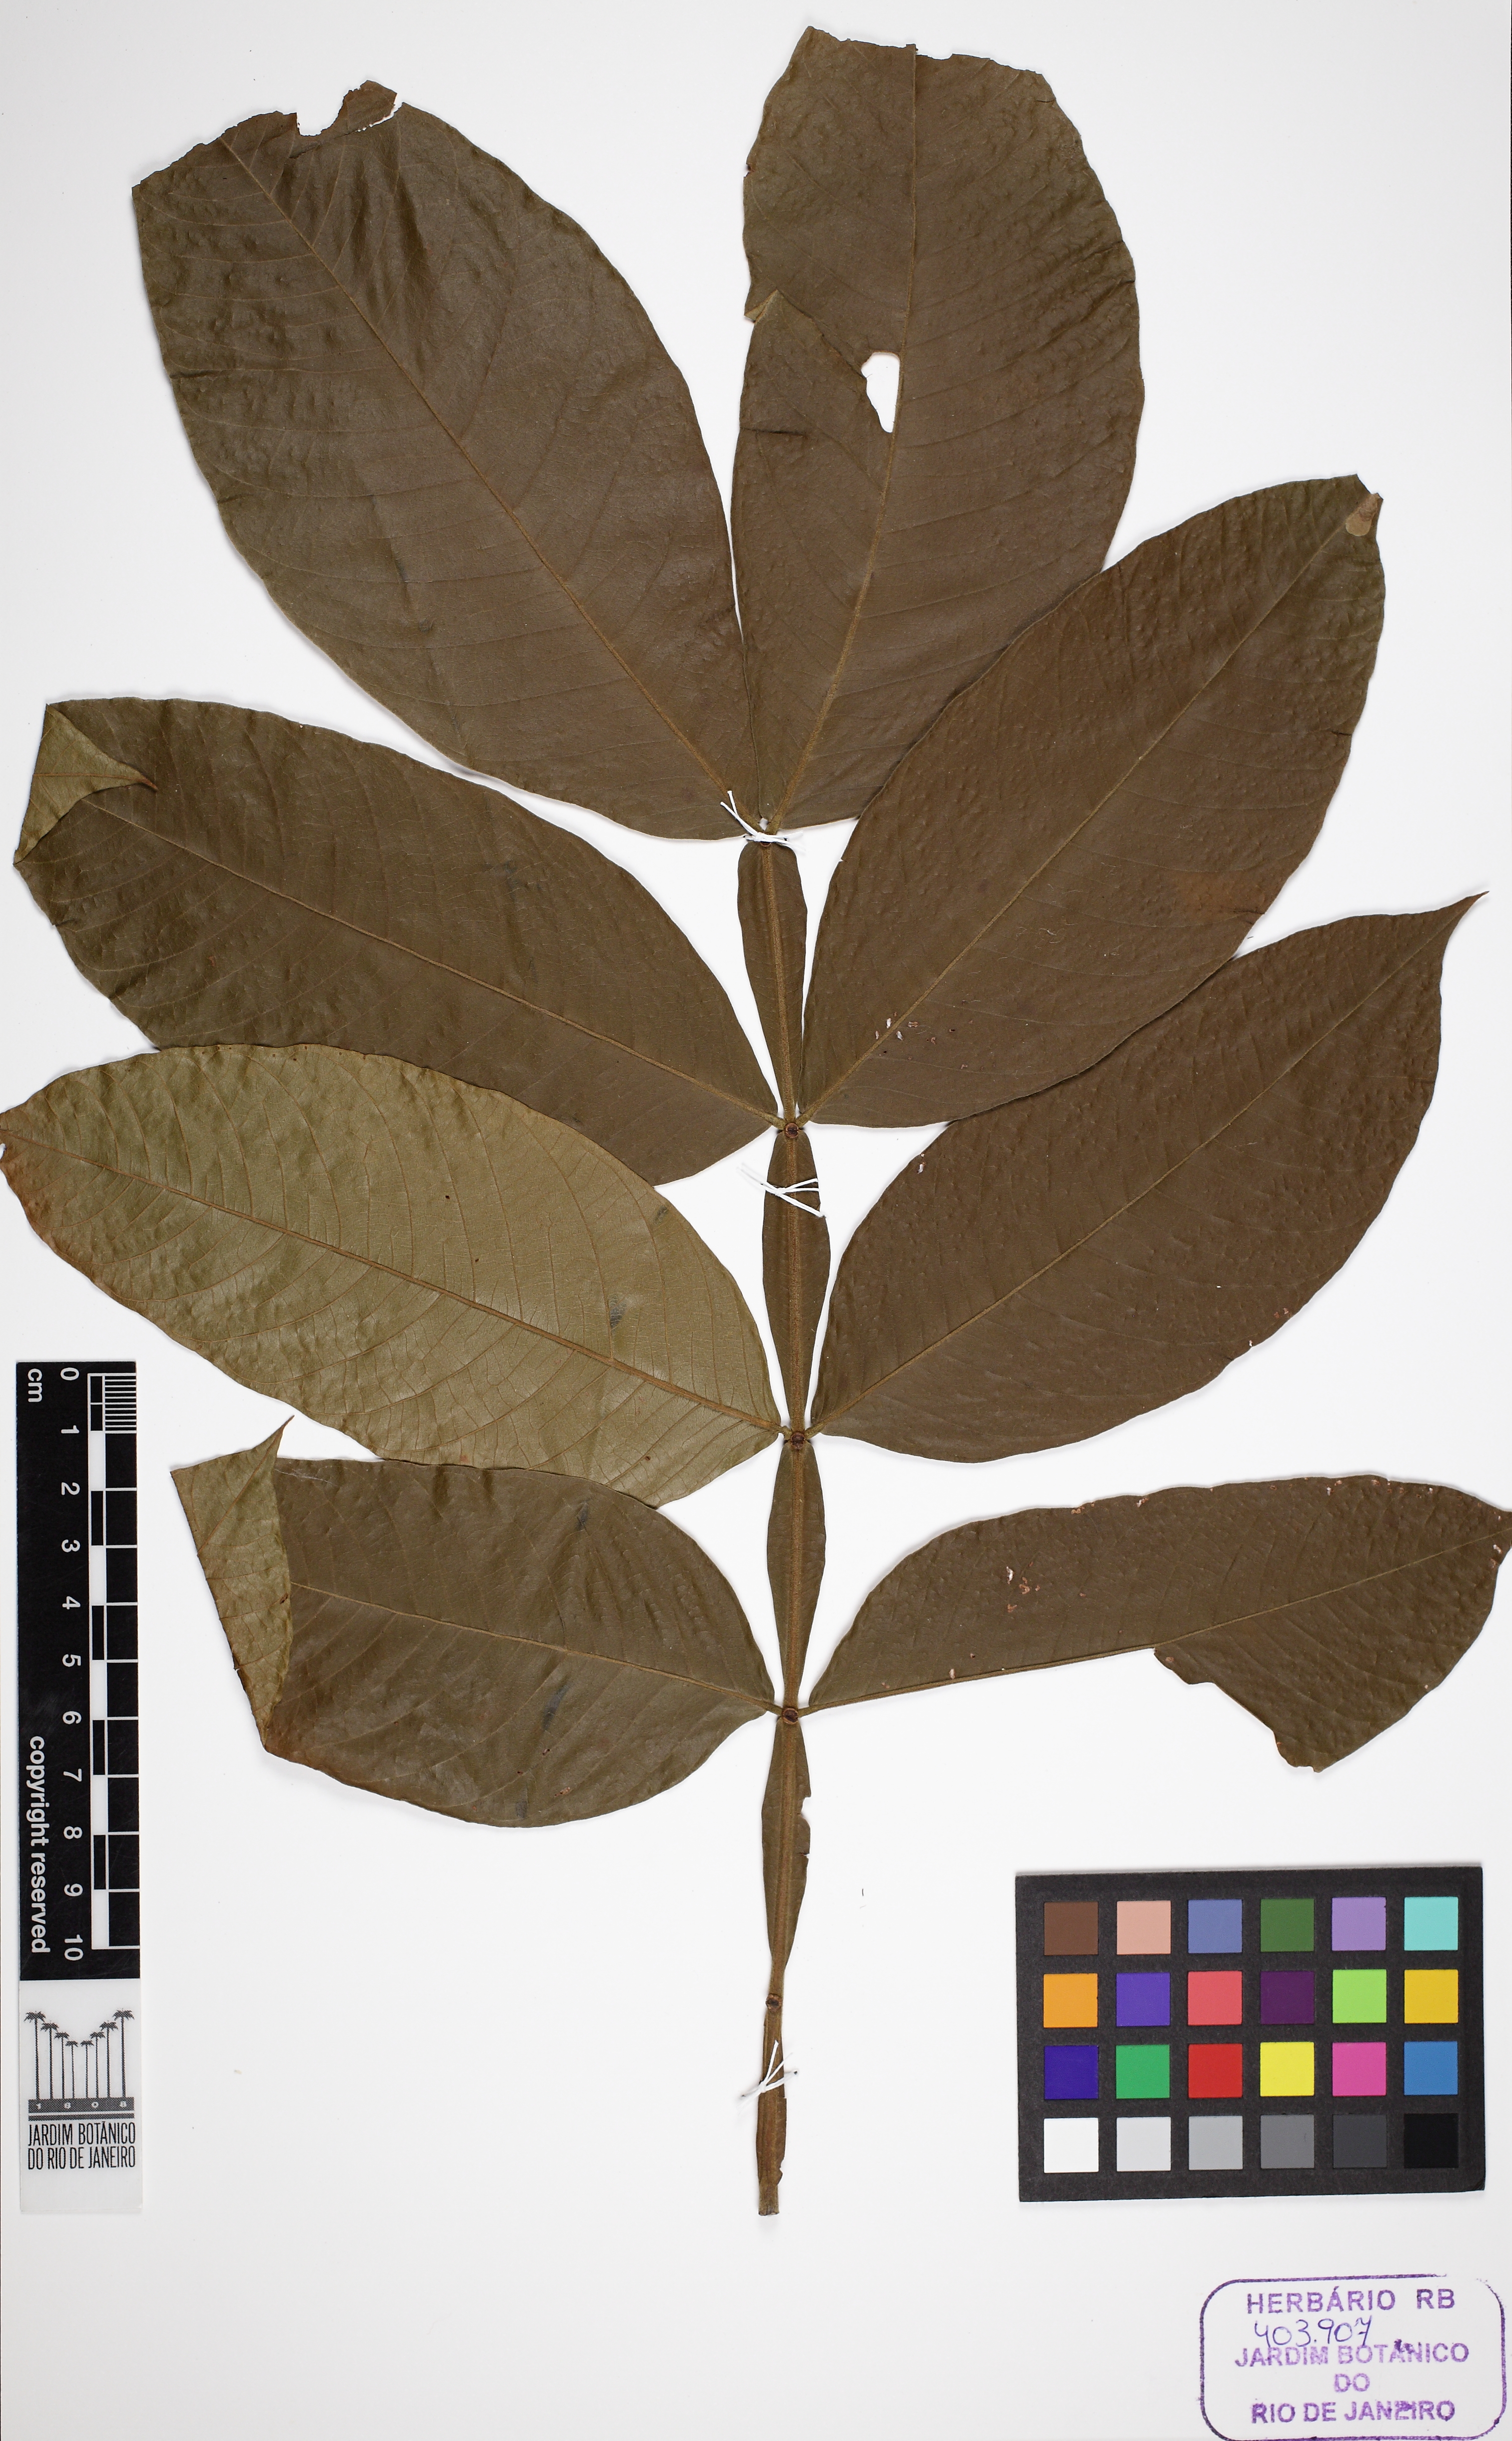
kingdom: Plantae
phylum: Tracheophyta
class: Magnoliopsida
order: Fabales
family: Fabaceae
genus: Inga
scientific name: Inga edulis
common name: Ice cream bean
